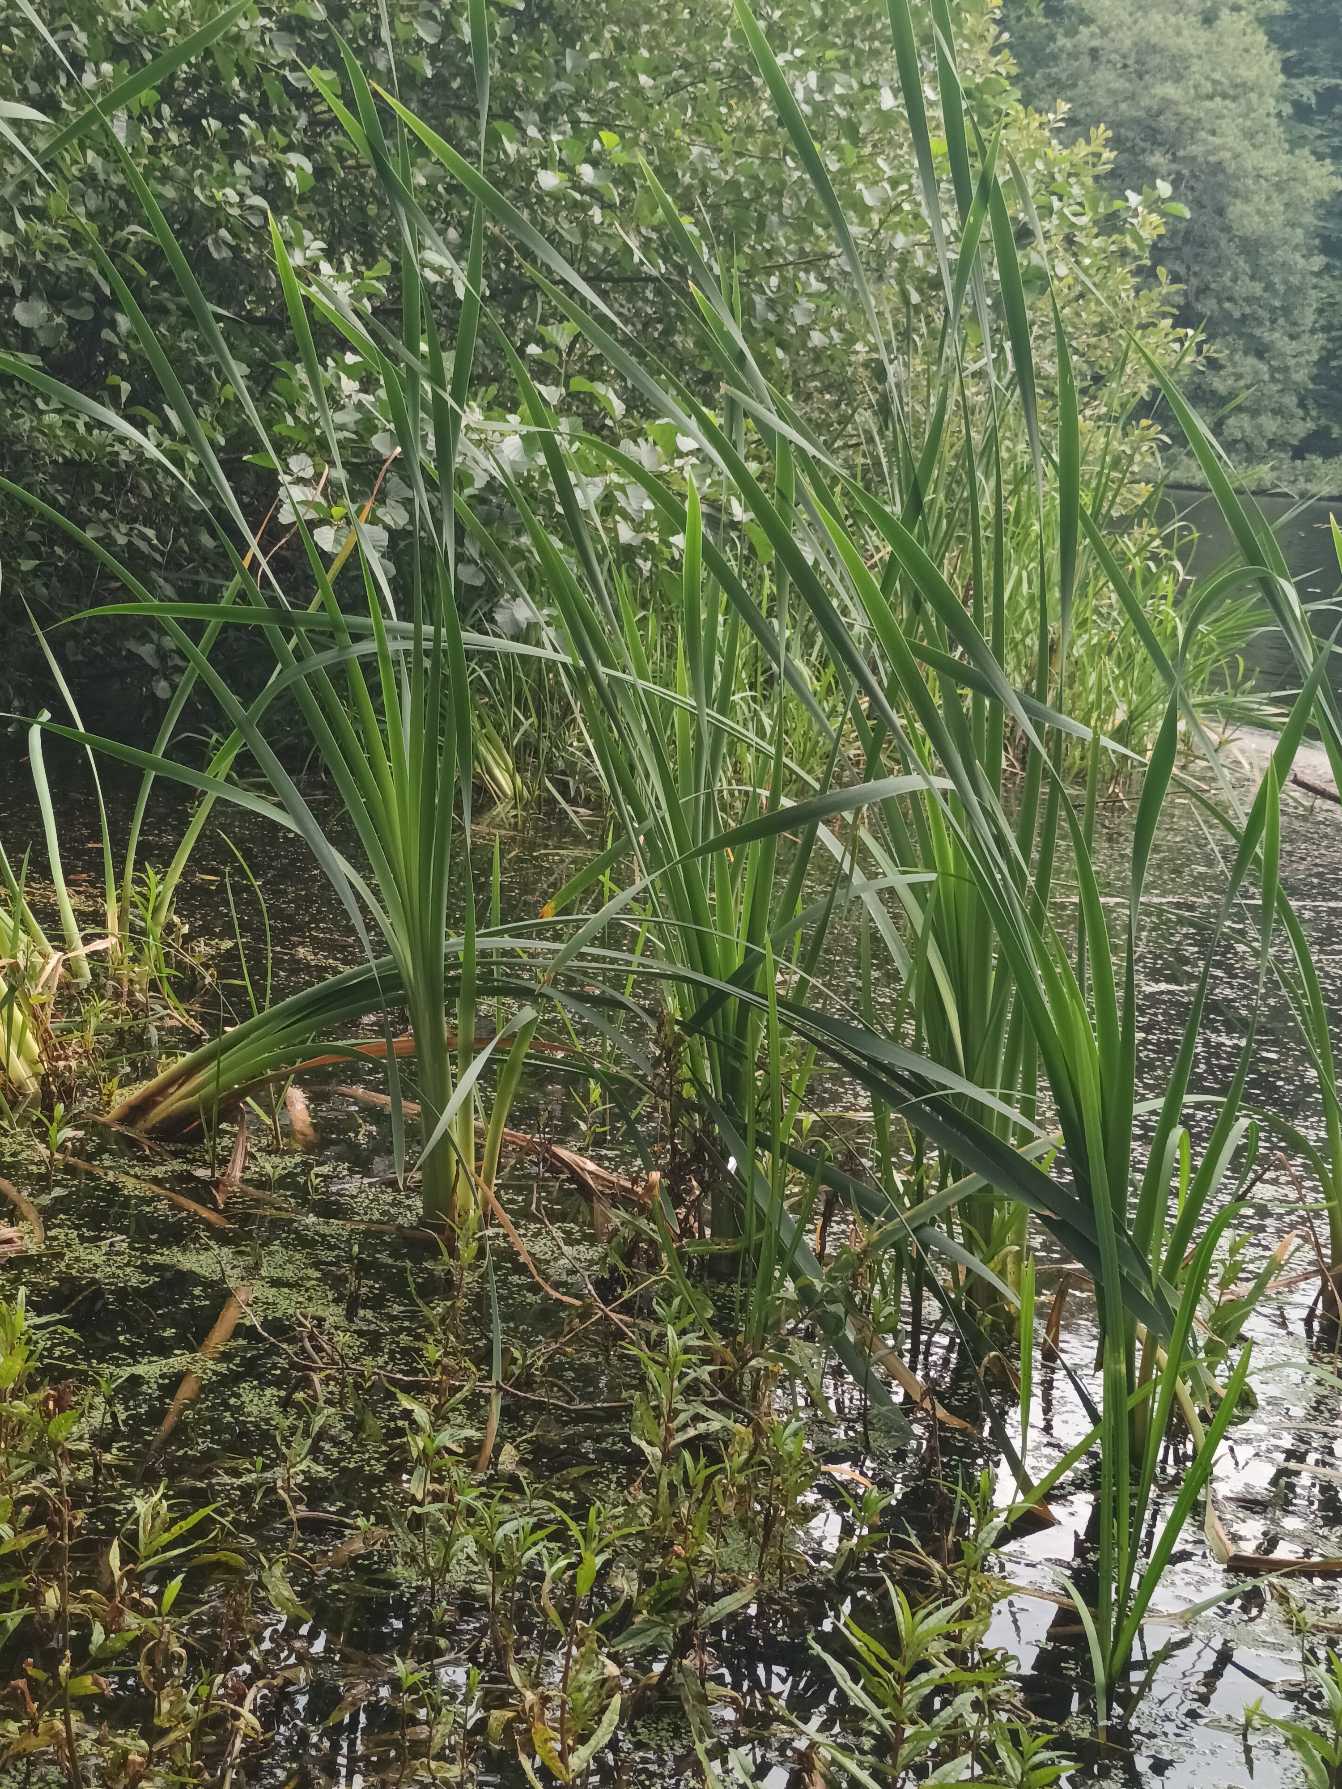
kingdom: Plantae
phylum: Tracheophyta
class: Liliopsida
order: Poales
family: Typhaceae
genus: Typha
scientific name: Typha latifolia
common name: Bredbladet dunhammer
